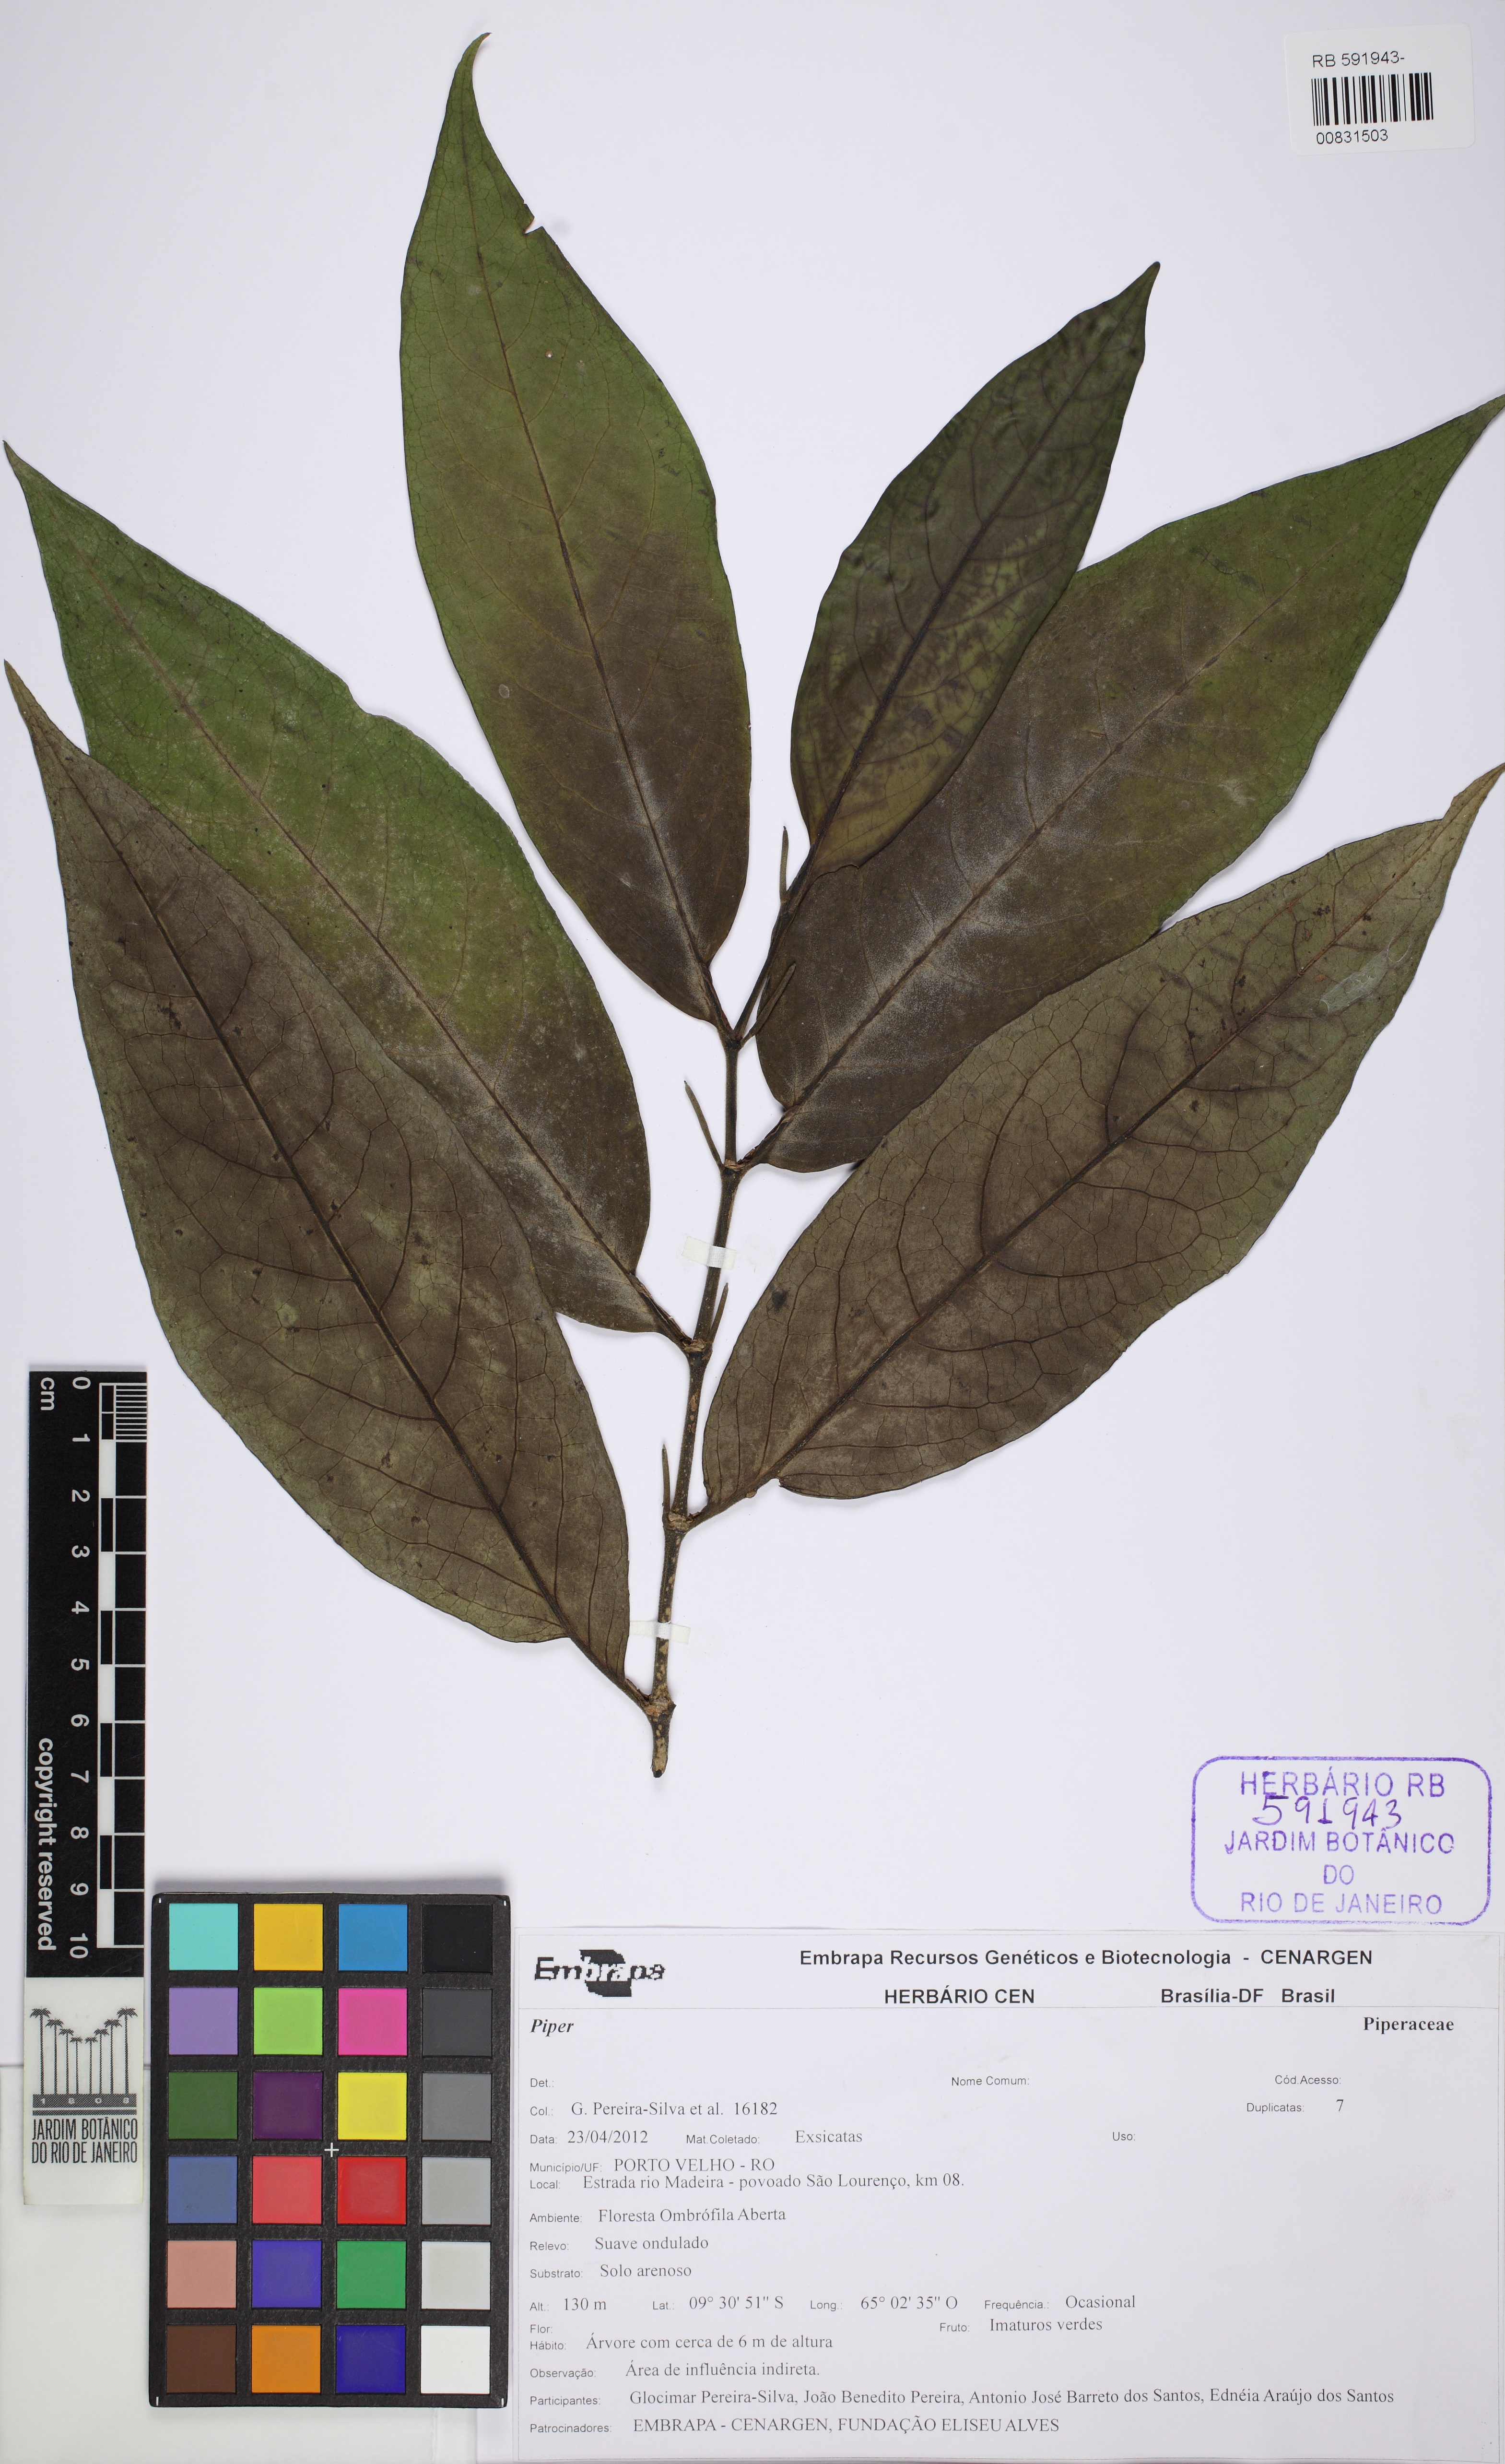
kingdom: Plantae
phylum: Tracheophyta
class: Magnoliopsida
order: Piperales
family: Piperaceae
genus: Piper
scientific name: Piper arboreum
